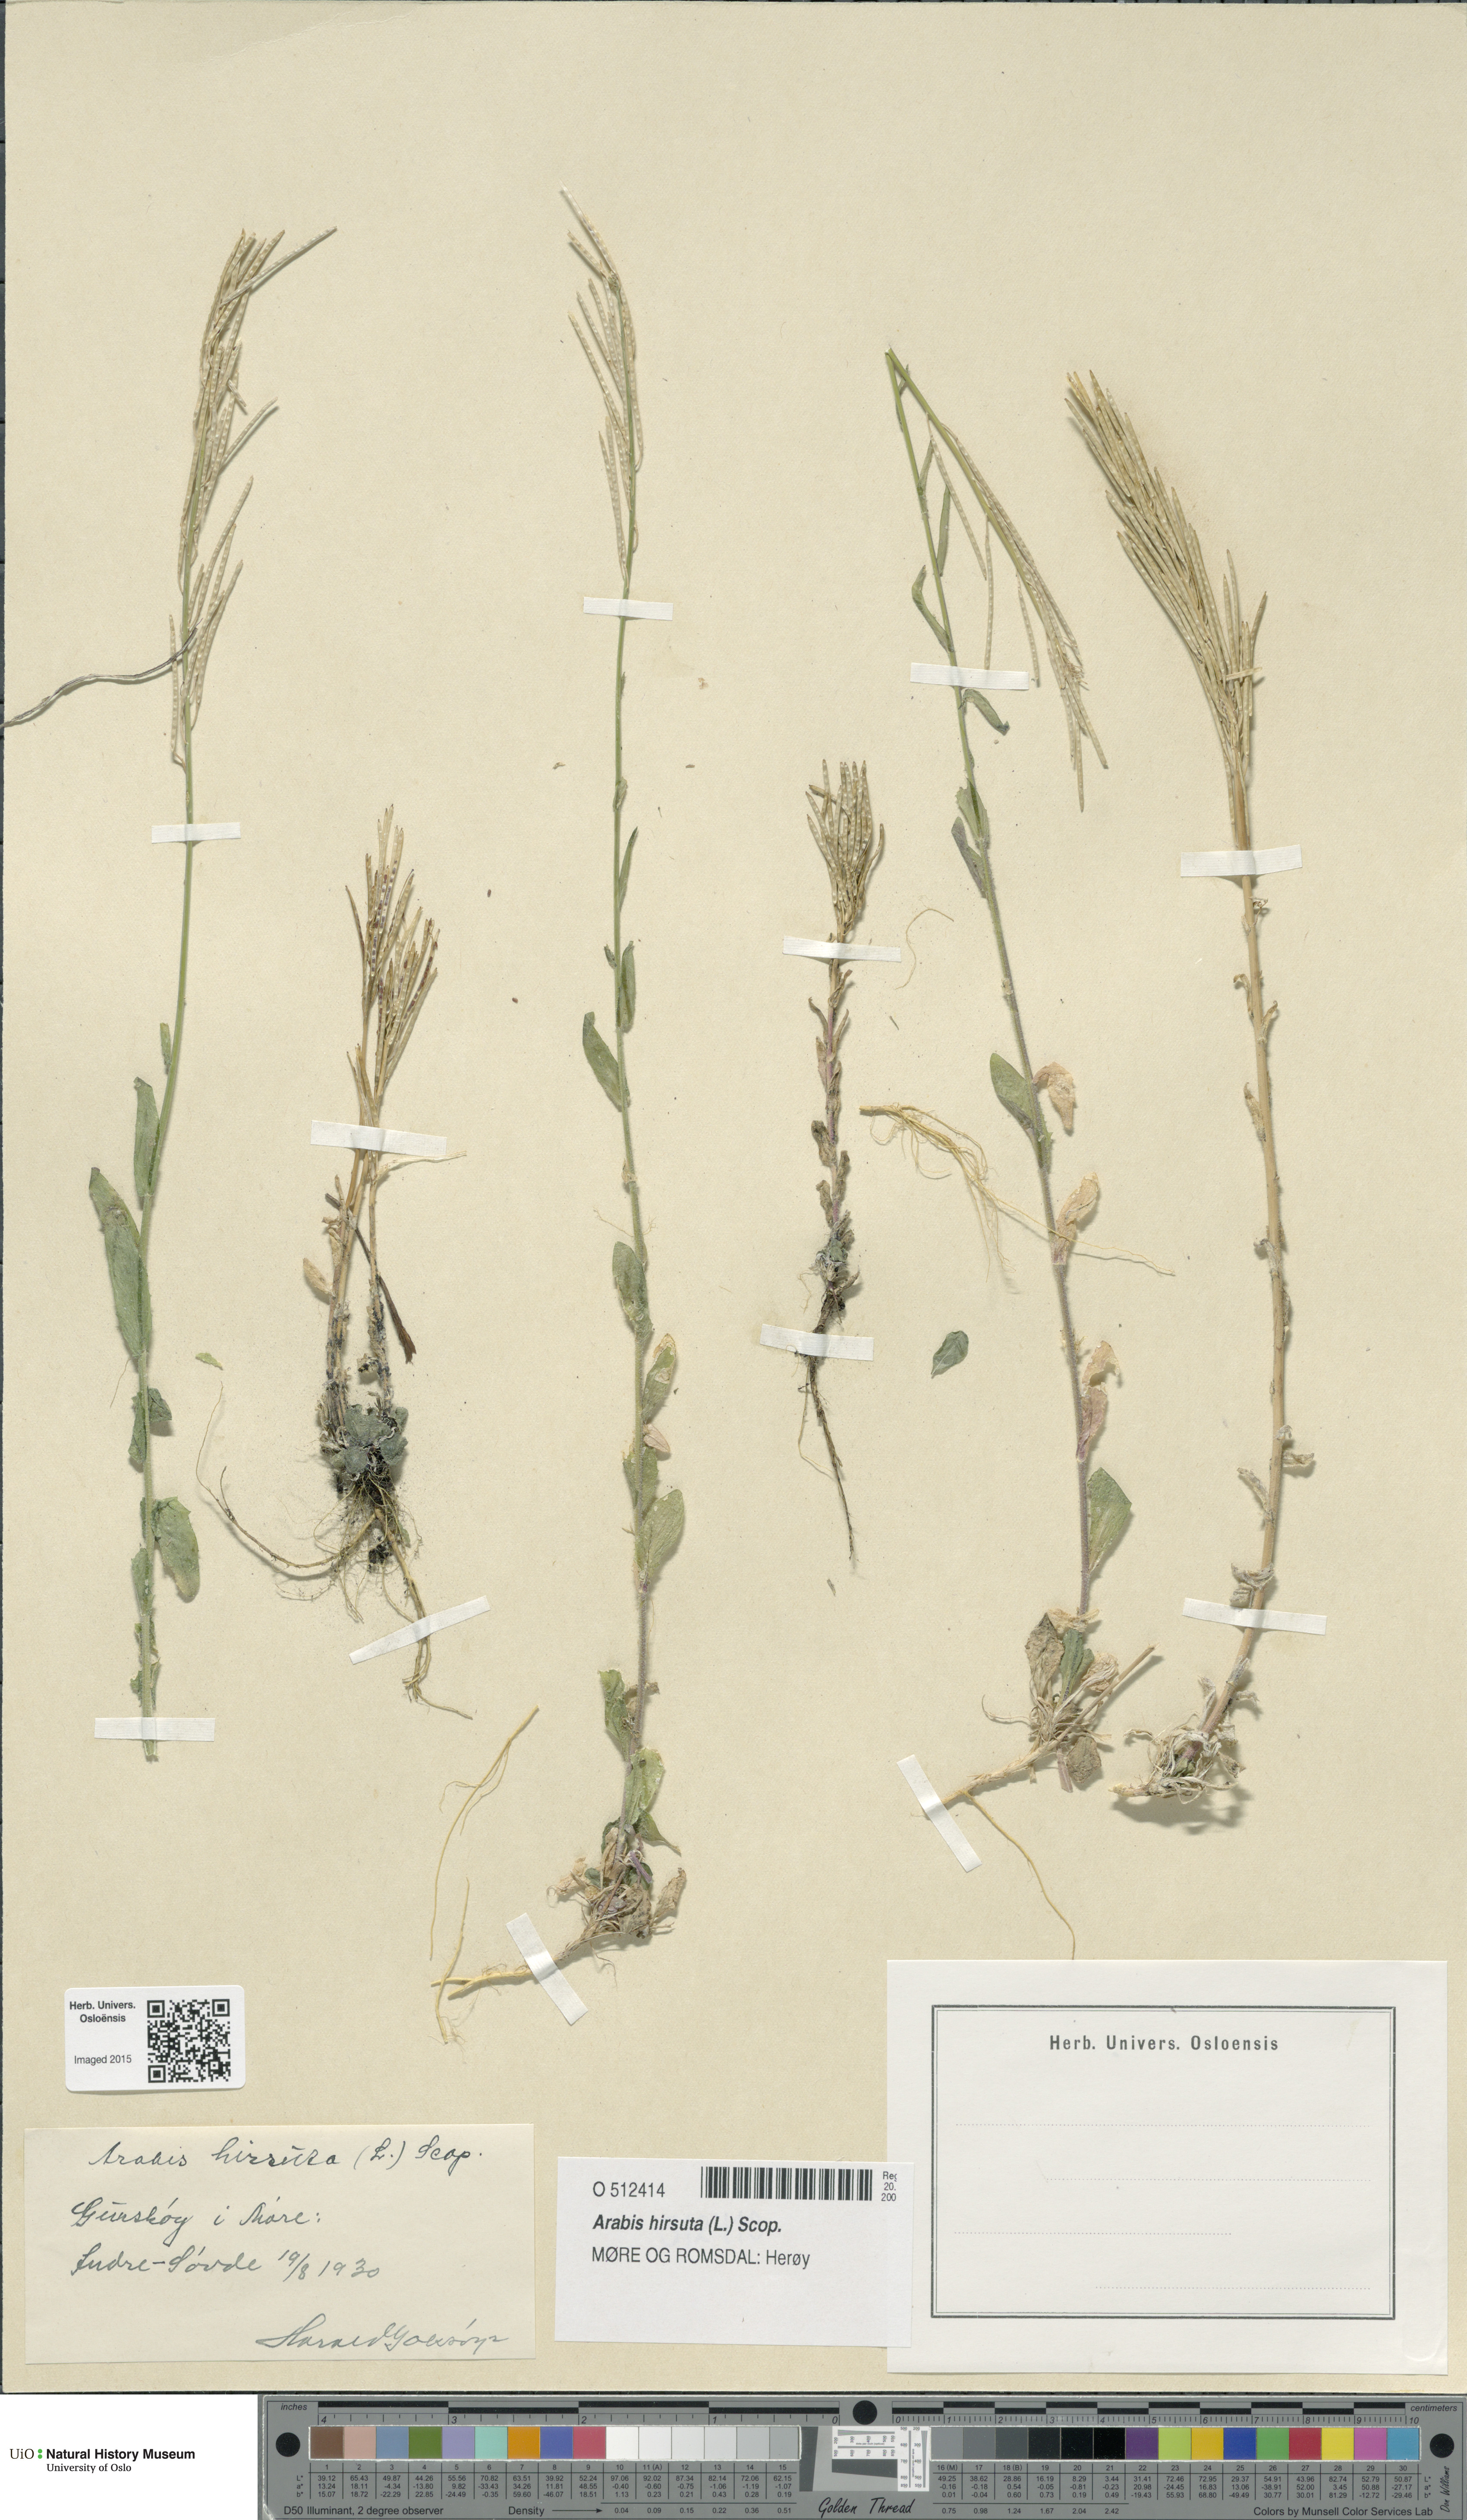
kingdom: Plantae
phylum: Tracheophyta
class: Magnoliopsida
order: Brassicales
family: Brassicaceae
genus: Arabis
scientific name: Arabis hirsuta
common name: Hairy rock-cress
